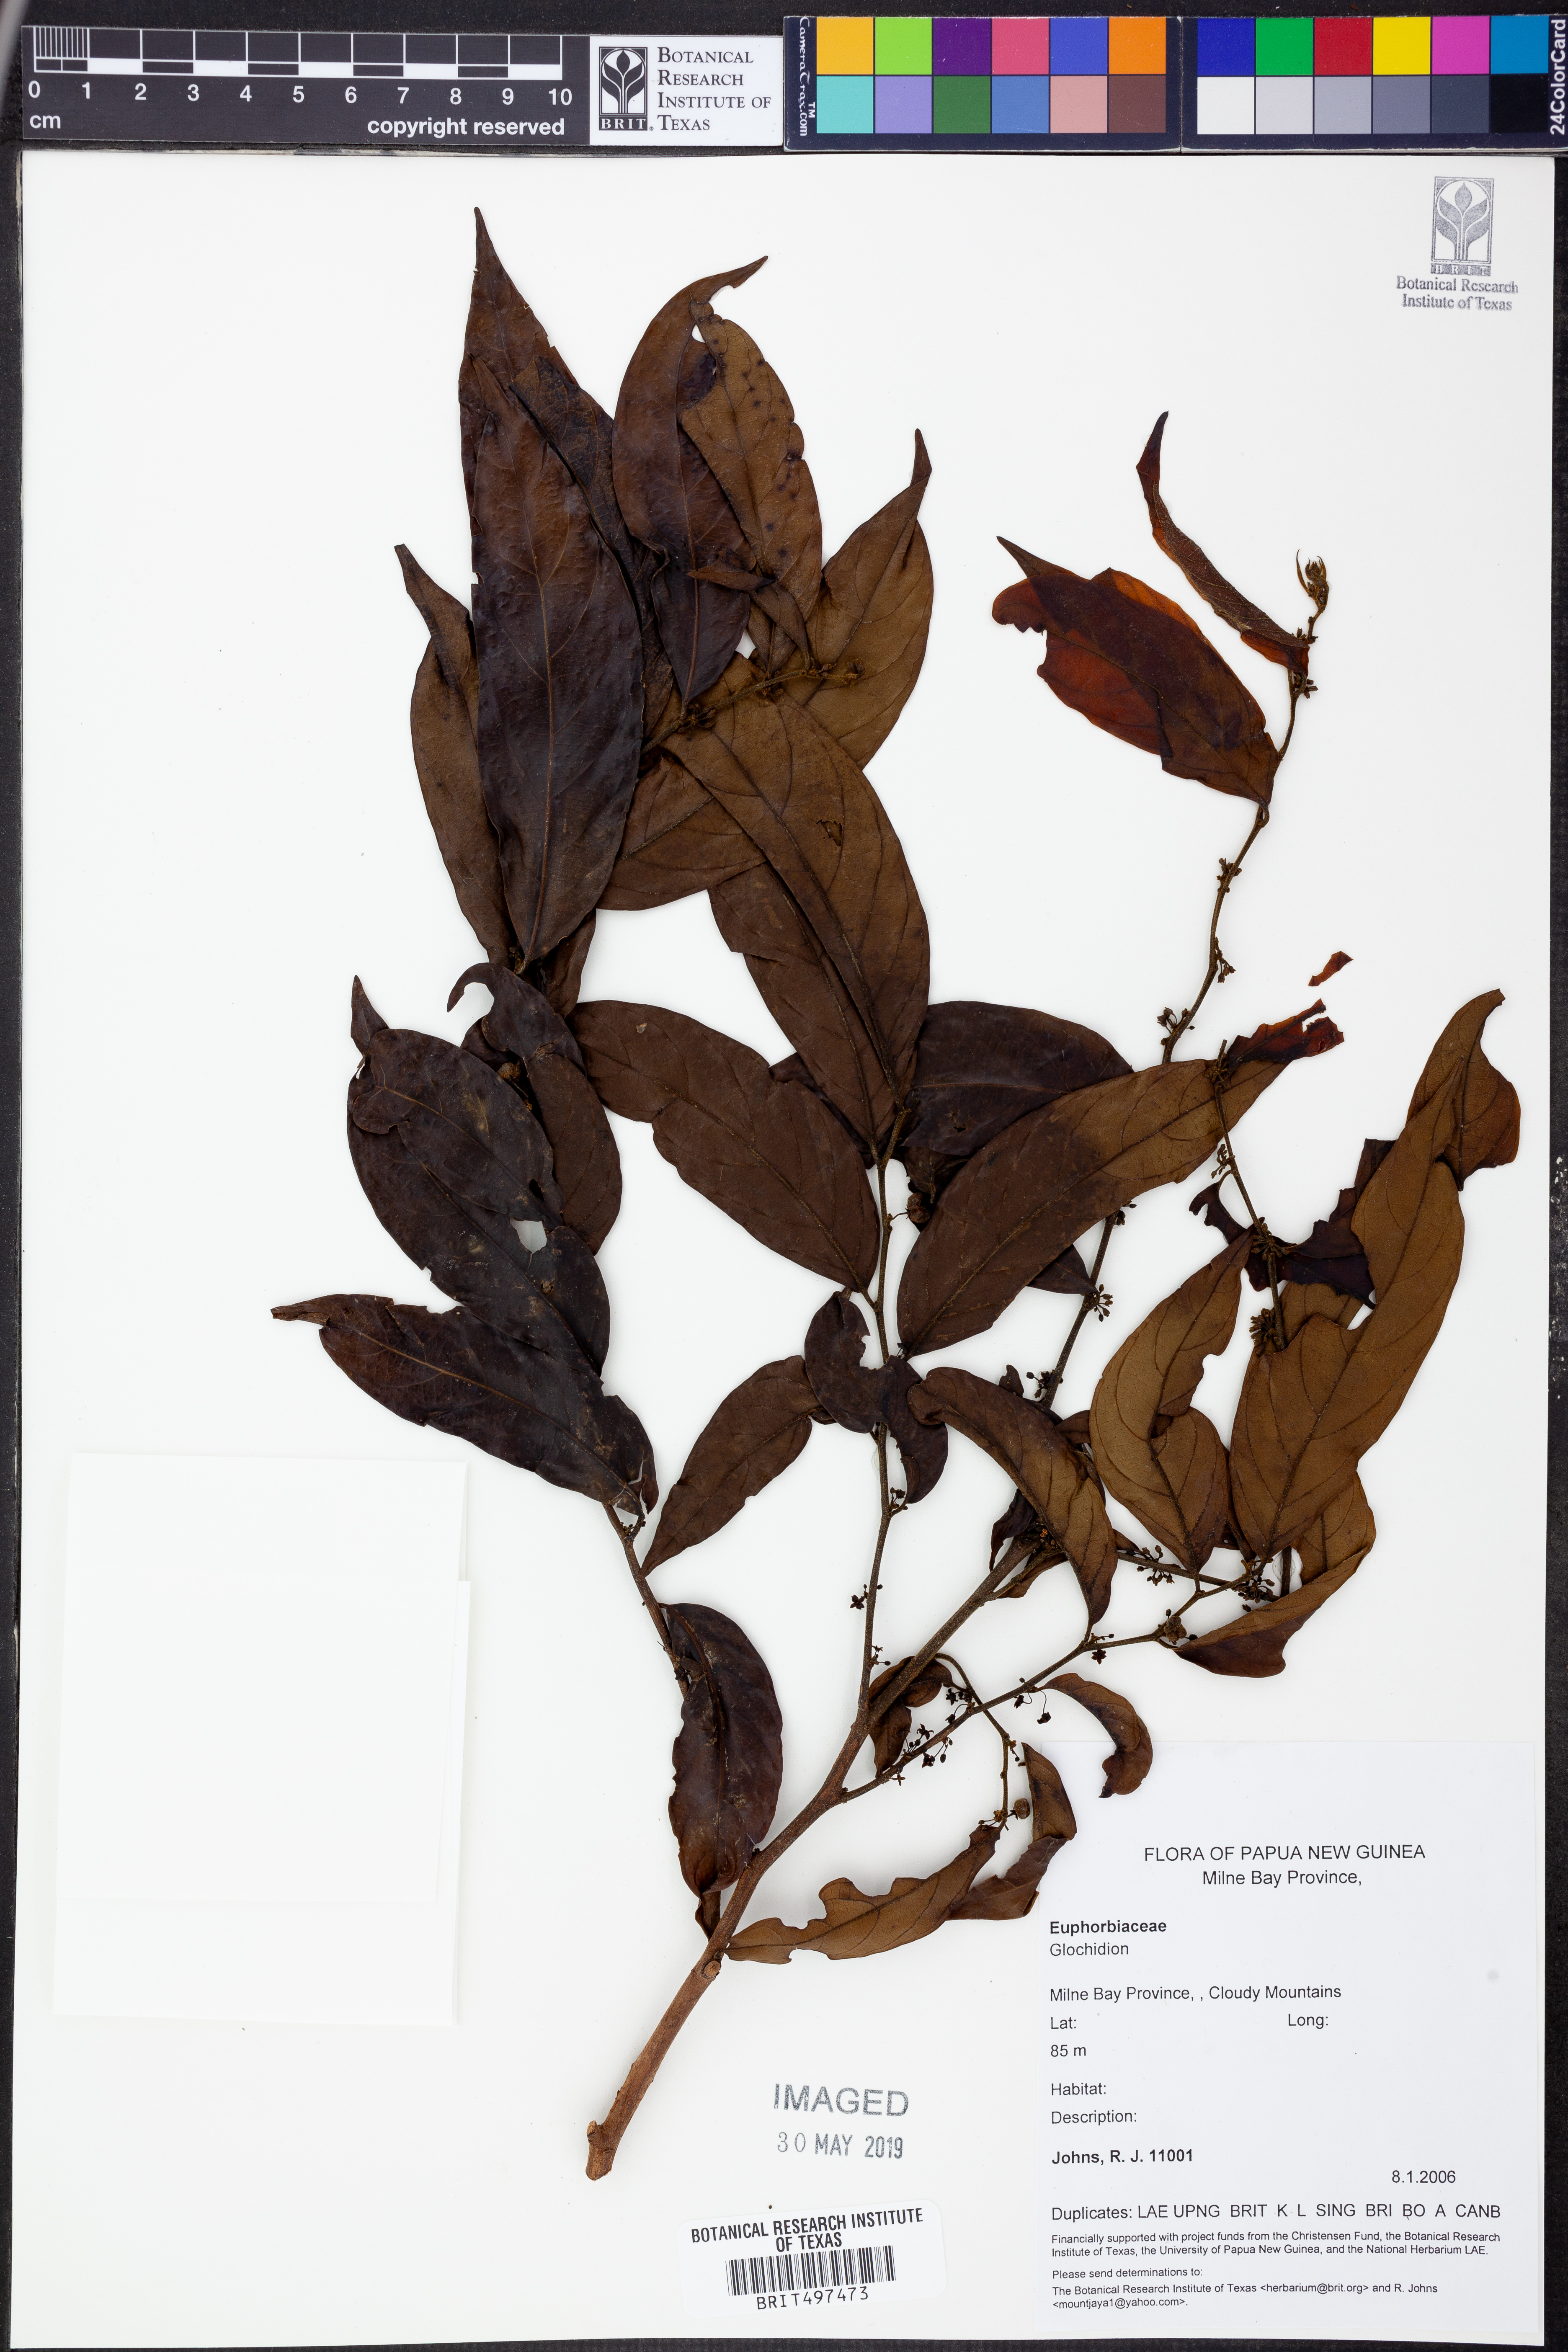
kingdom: Plantae
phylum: Tracheophyta
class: Magnoliopsida
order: Malpighiales
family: Phyllanthaceae
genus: Glochidion
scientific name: Glochidion
